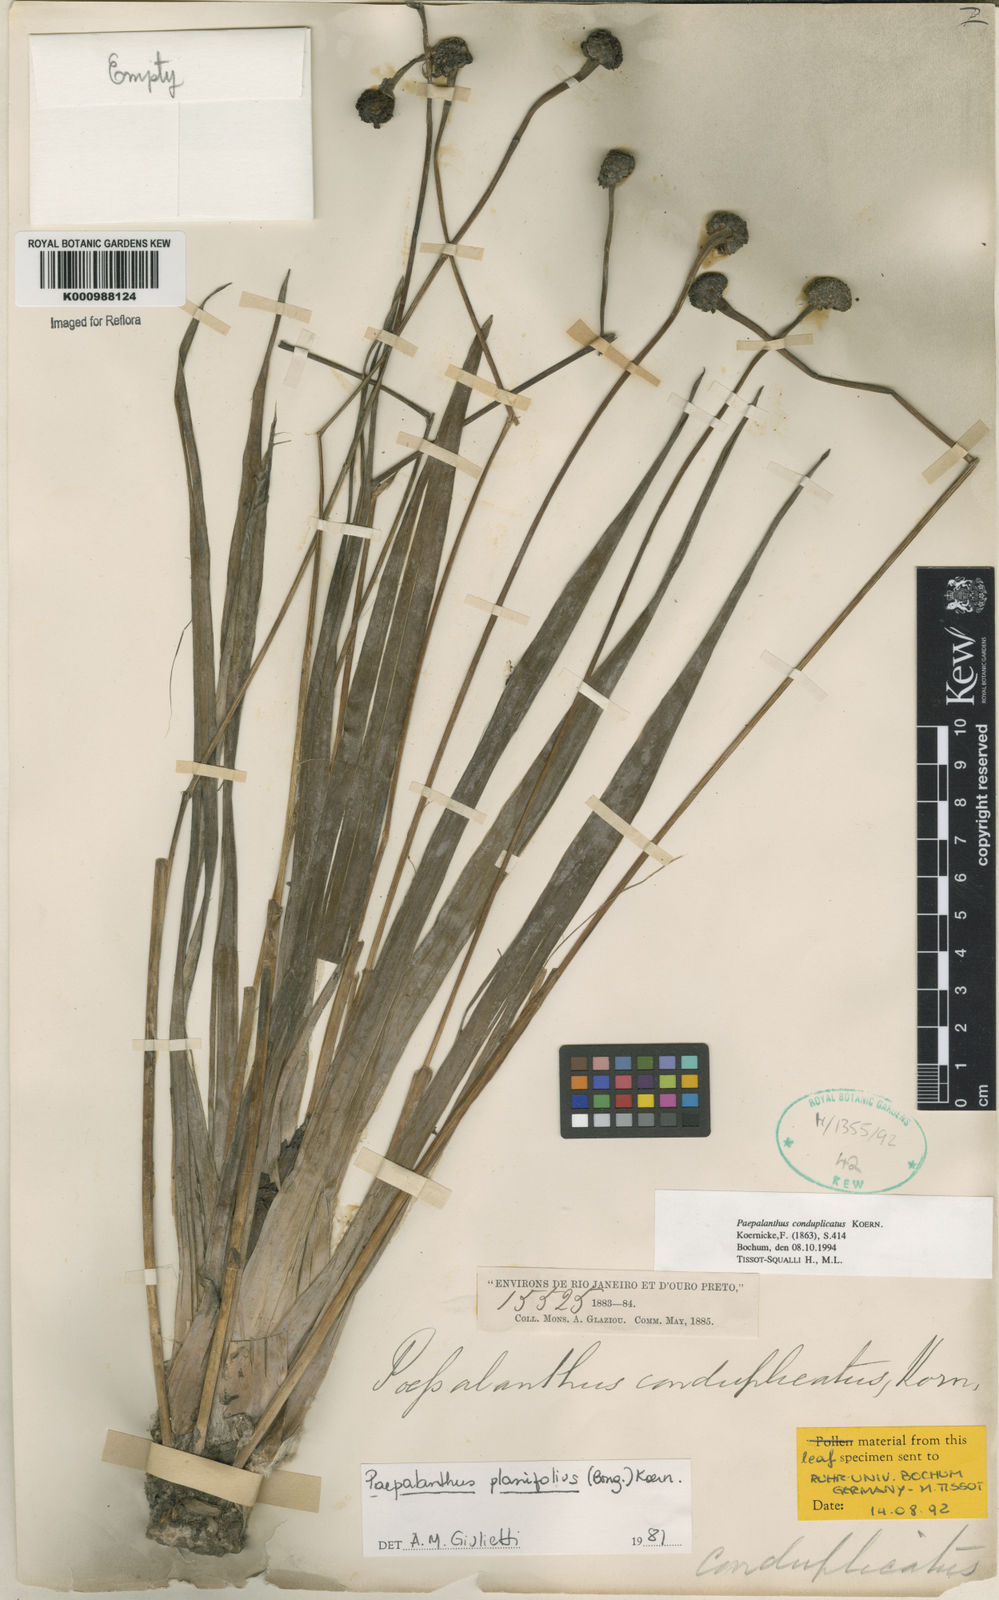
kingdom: Plantae
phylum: Tracheophyta
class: Liliopsida
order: Poales
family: Eriocaulaceae
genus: Paepalanthus
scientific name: Paepalanthus macropodus
